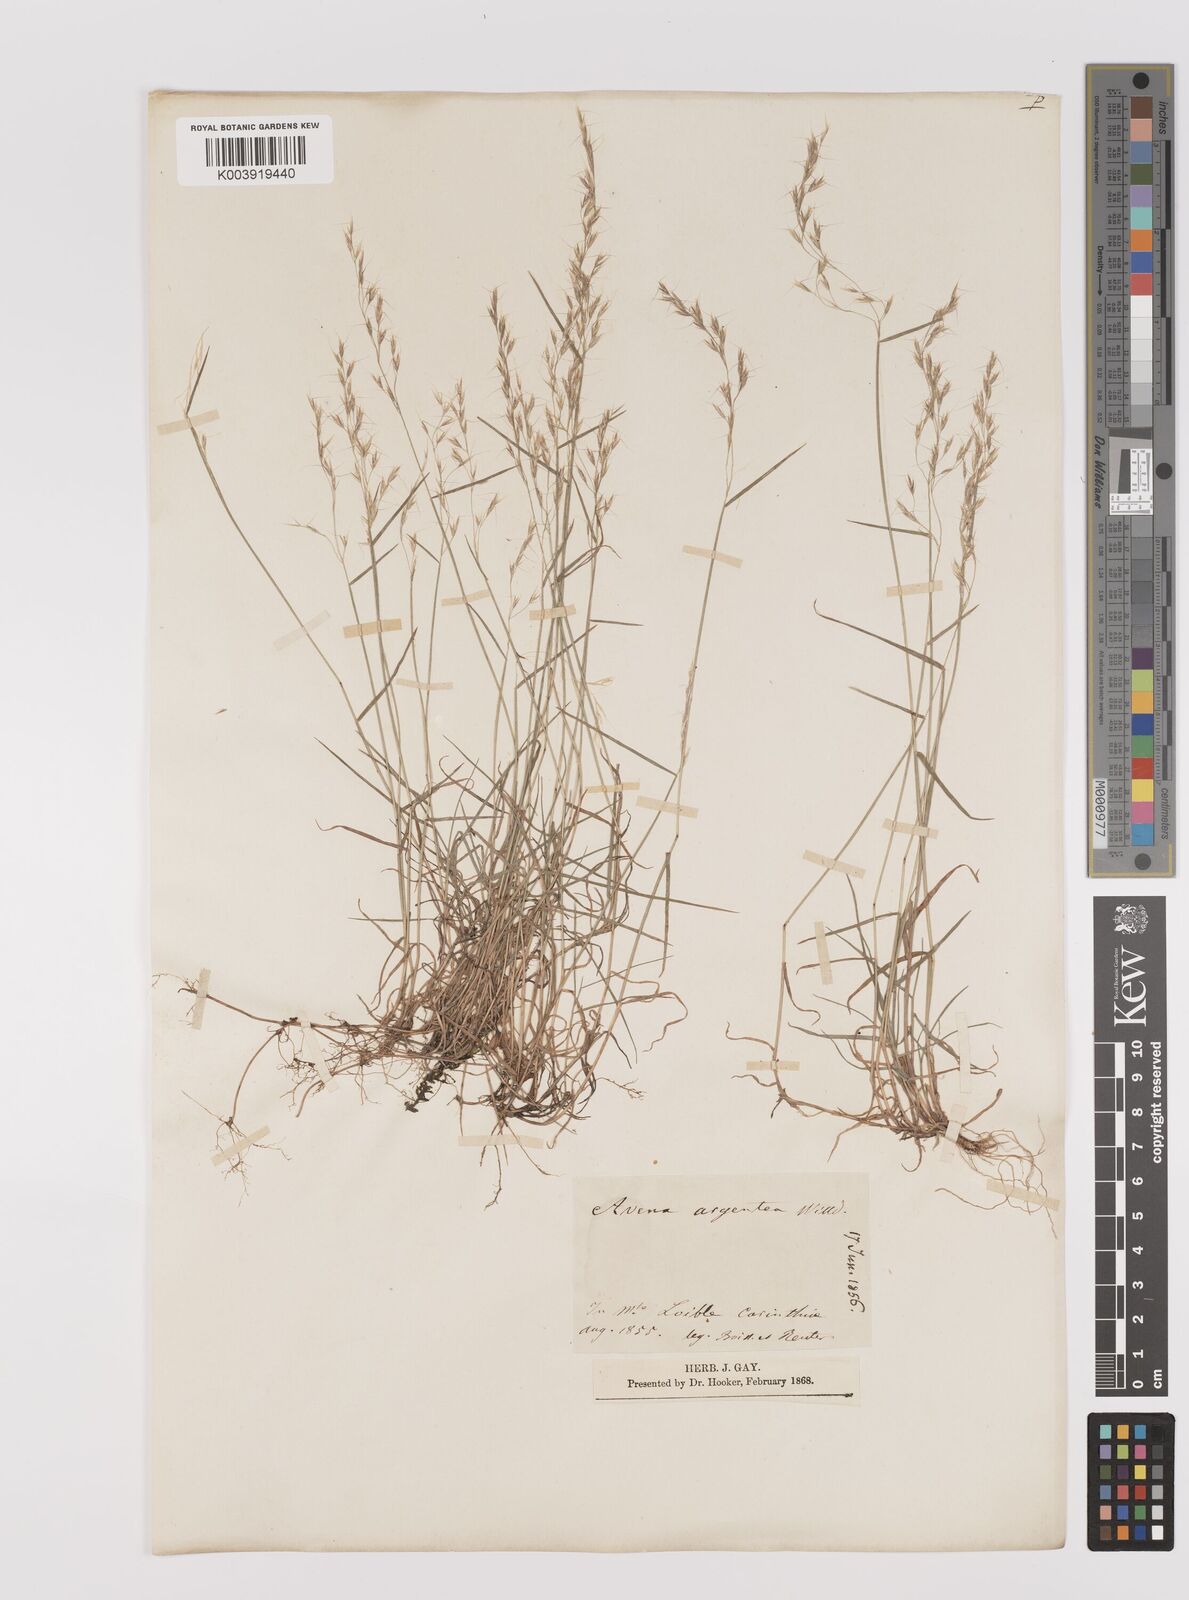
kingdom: Plantae
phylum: Tracheophyta
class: Liliopsida
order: Poales
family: Poaceae
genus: Trisetum
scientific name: Trisetum argenteum
